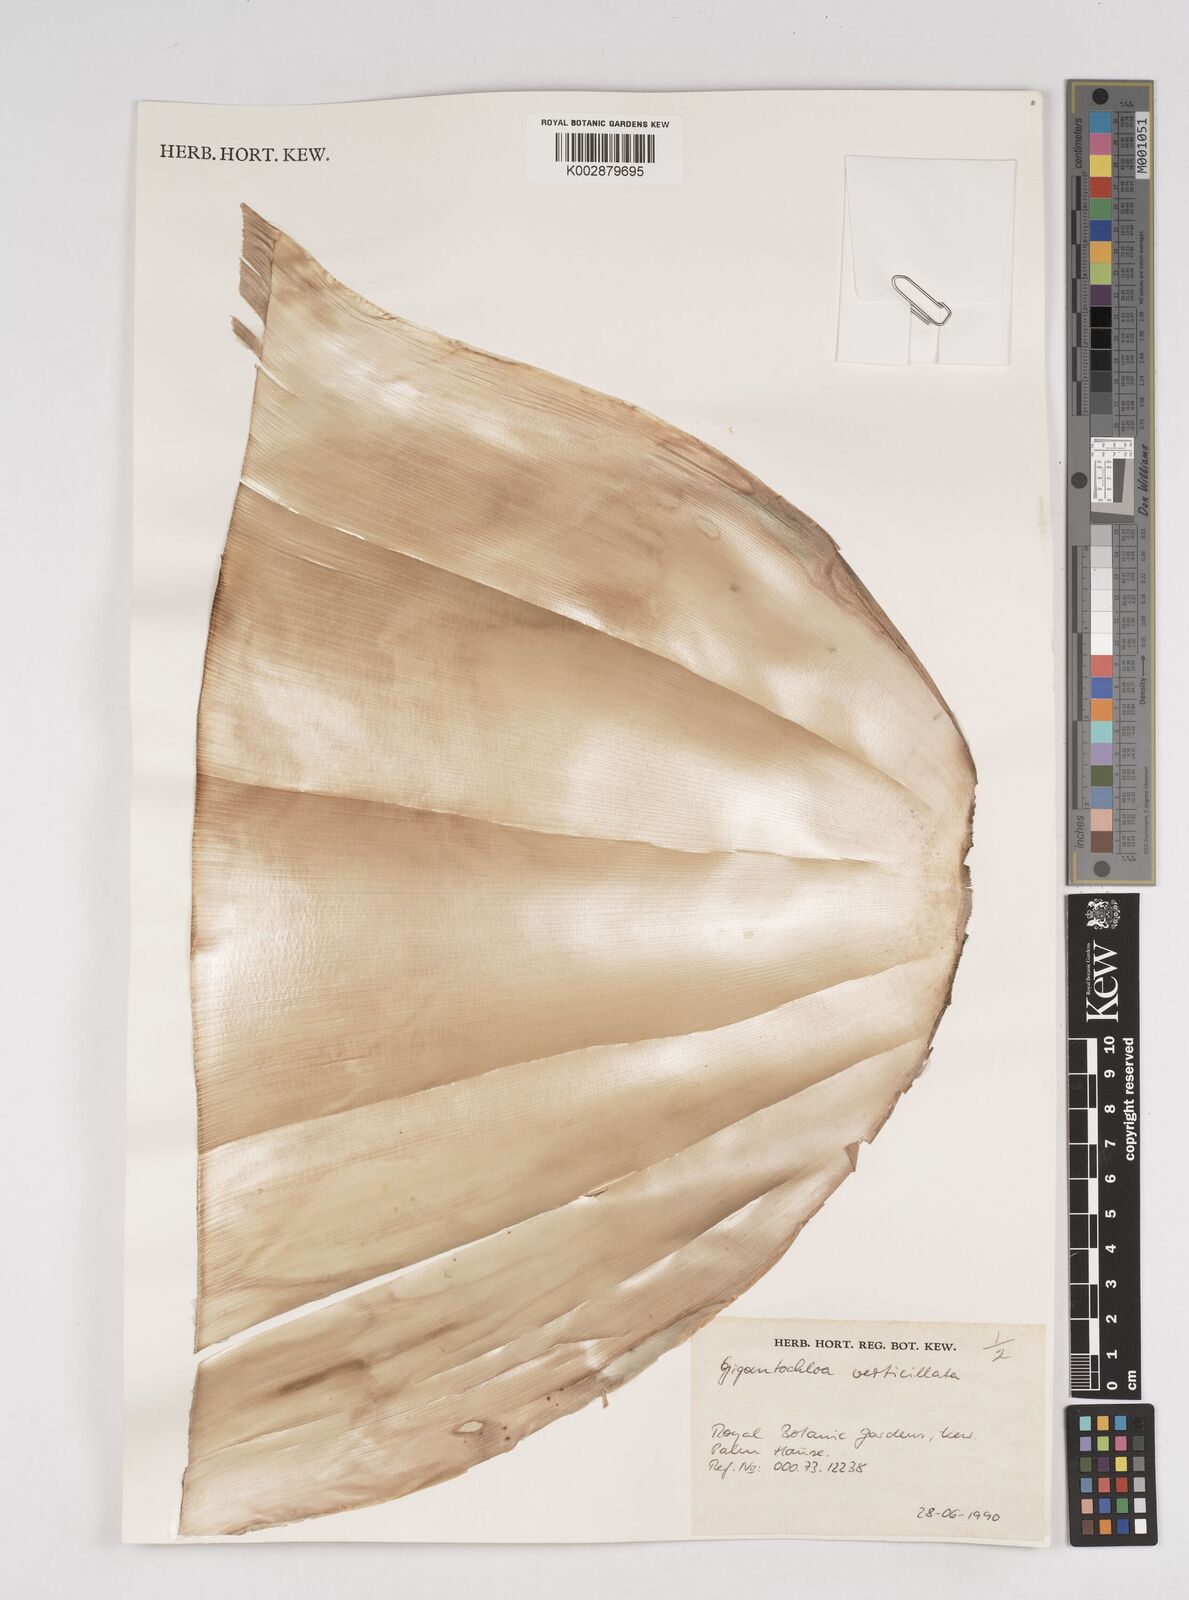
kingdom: Plantae
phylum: Tracheophyta
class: Liliopsida
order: Poales
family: Poaceae
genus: Gigantochloa
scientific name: Gigantochloa verticillata
